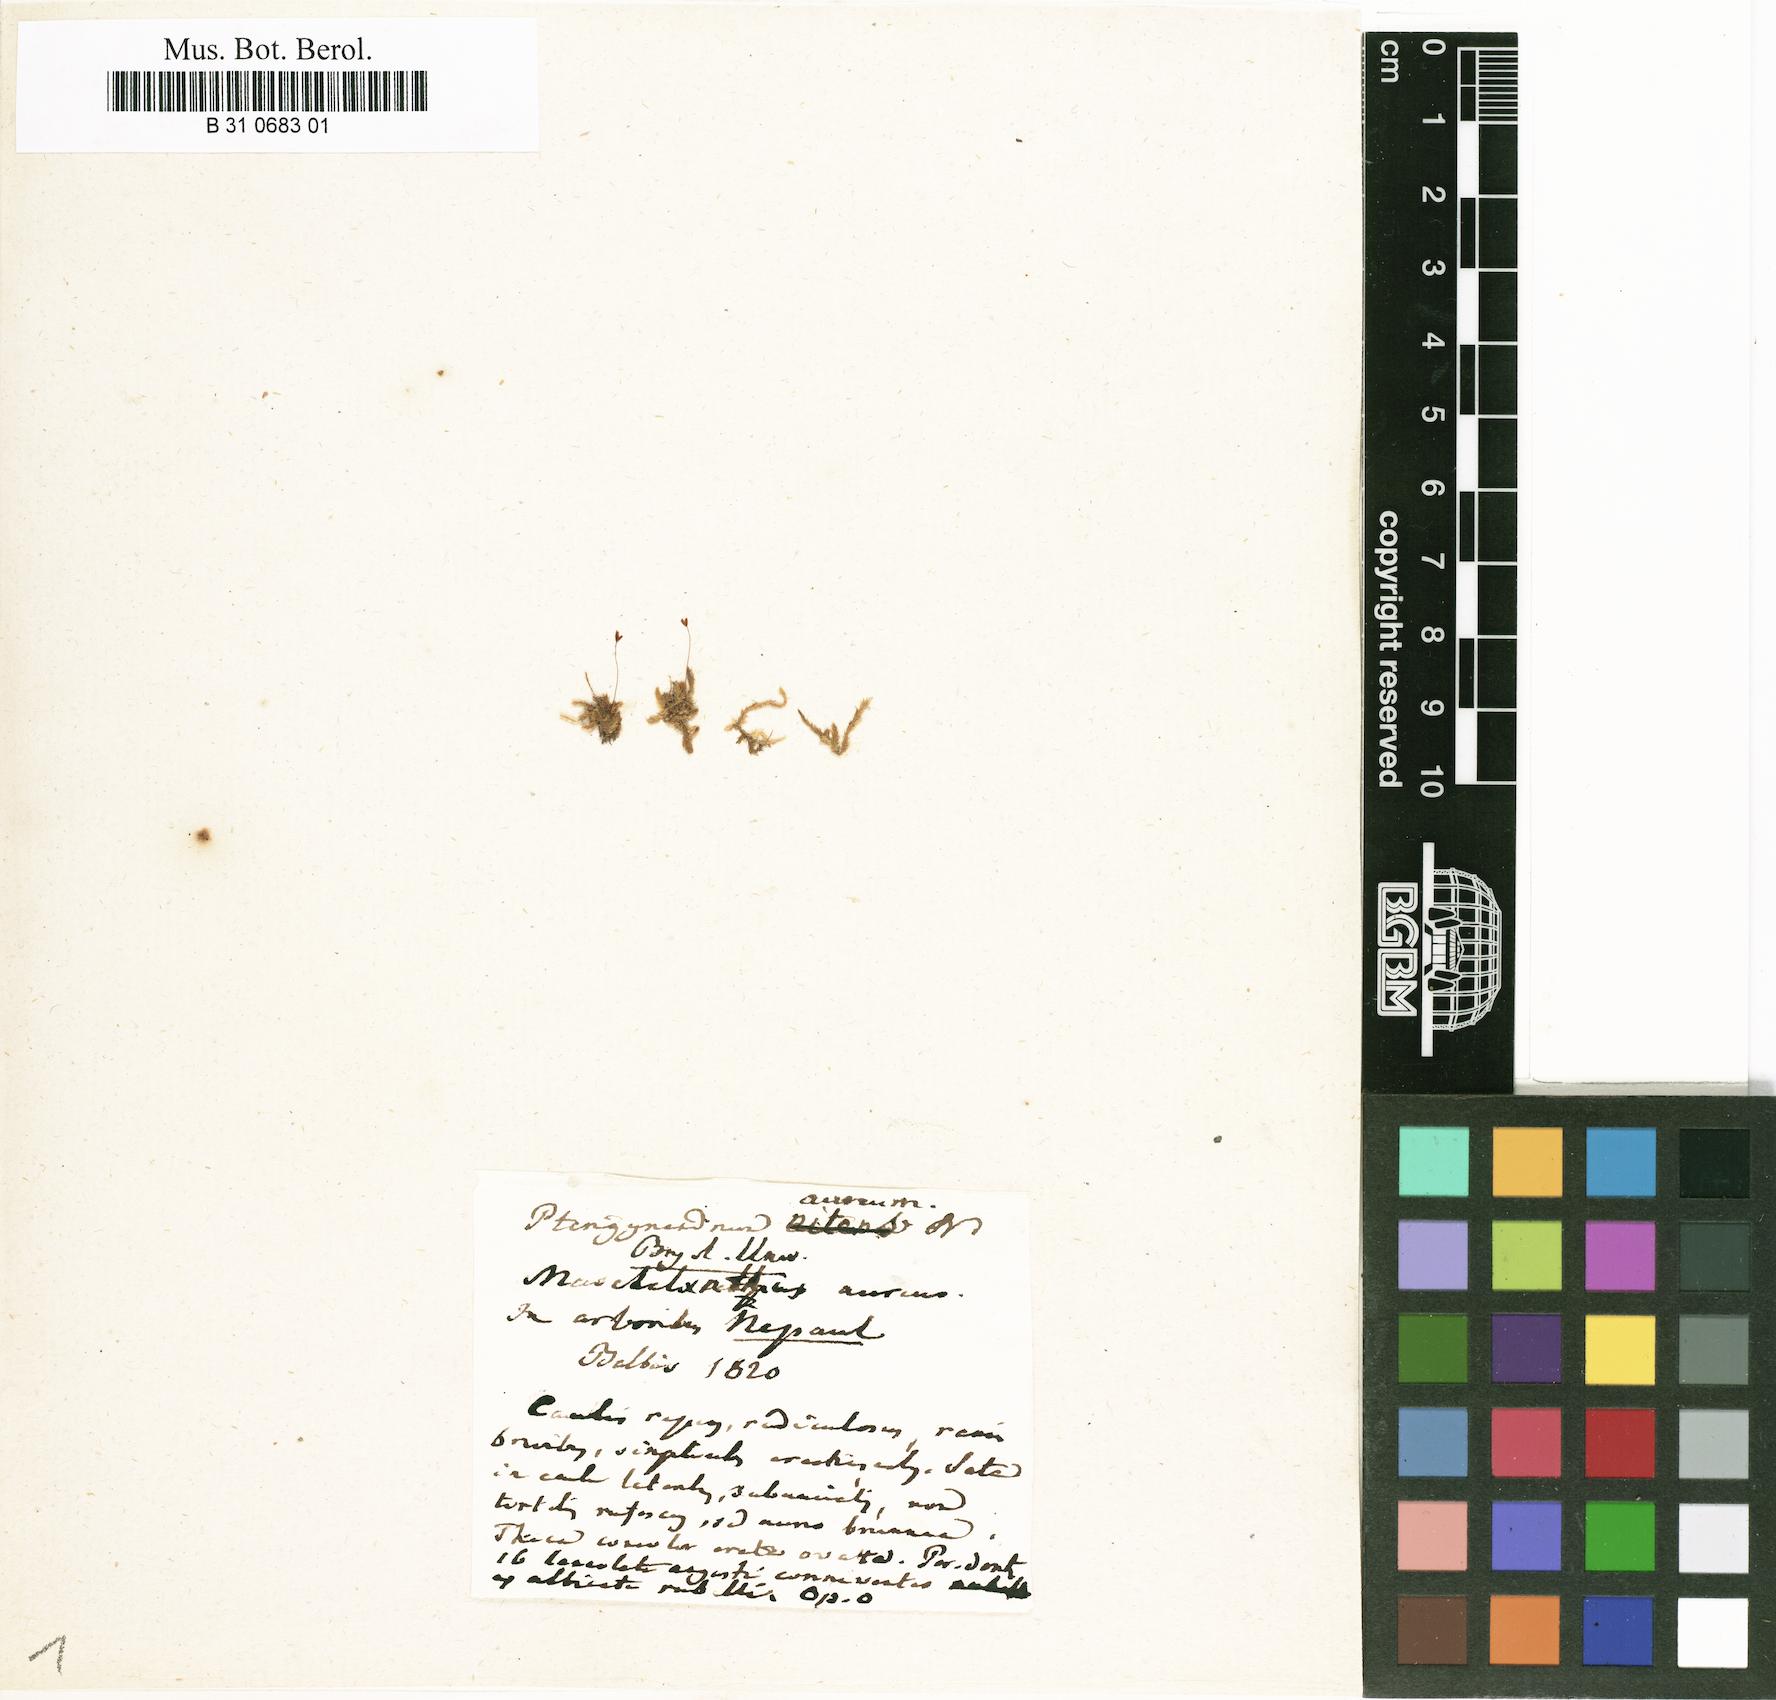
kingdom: Plantae
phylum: Bryophyta
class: Bryopsida
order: Hypnales
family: Pterobryaceae
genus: Orthostichopsis
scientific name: Orthostichopsis tetragona
